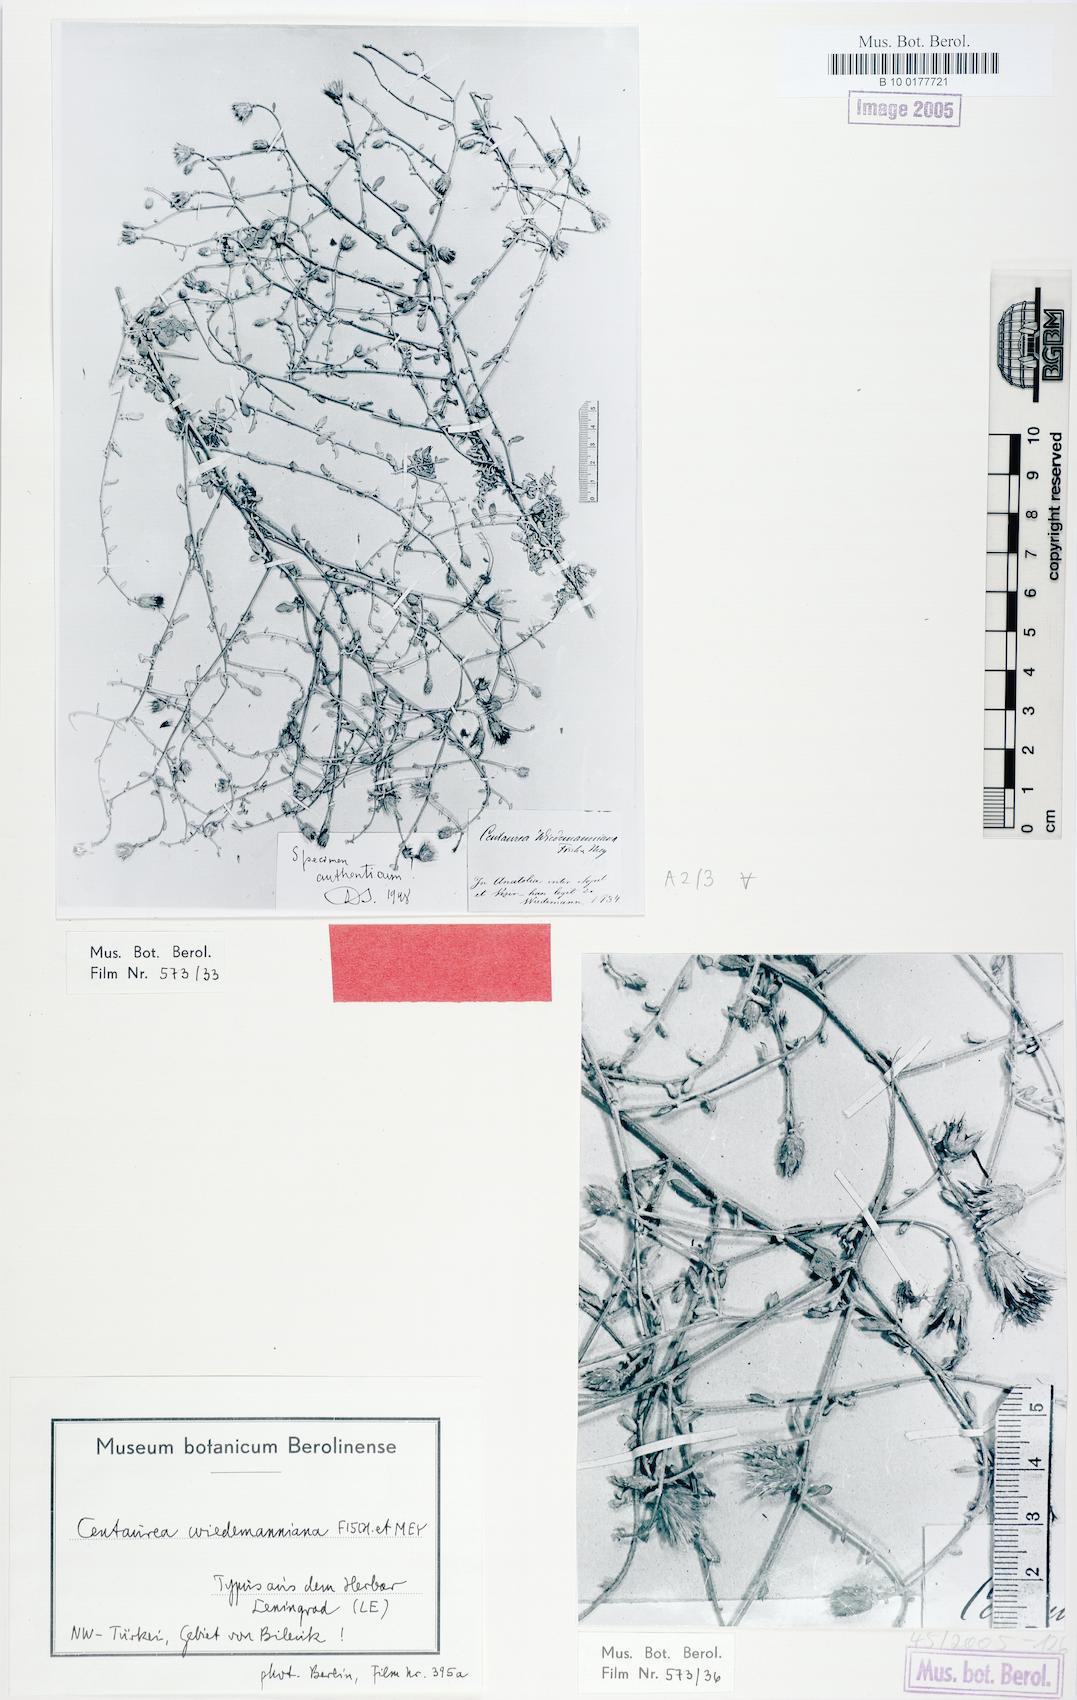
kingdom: Plantae
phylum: Tracheophyta
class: Magnoliopsida
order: Asterales
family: Asteraceae
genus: Centaurea
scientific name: Centaurea wiedemanniana
